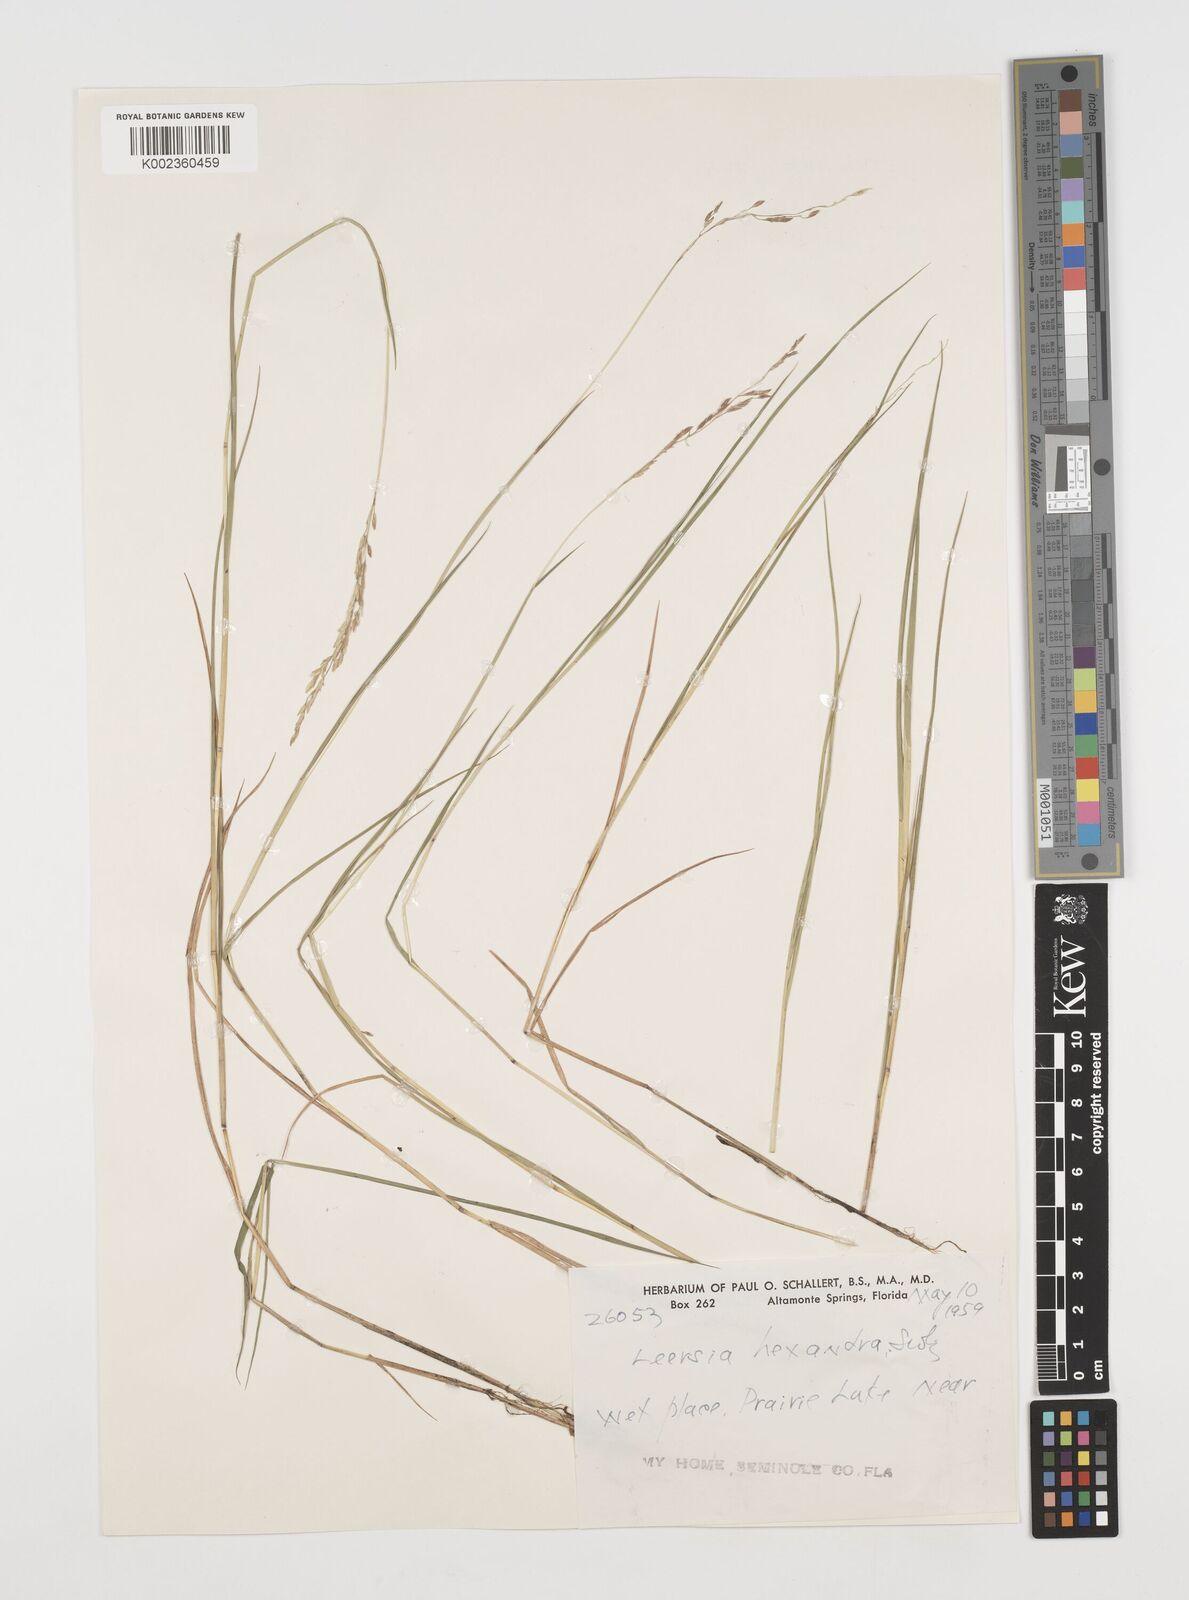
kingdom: Plantae
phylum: Tracheophyta
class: Liliopsida
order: Poales
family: Poaceae
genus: Leersia
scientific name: Leersia hexandra
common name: Southern cut grass
